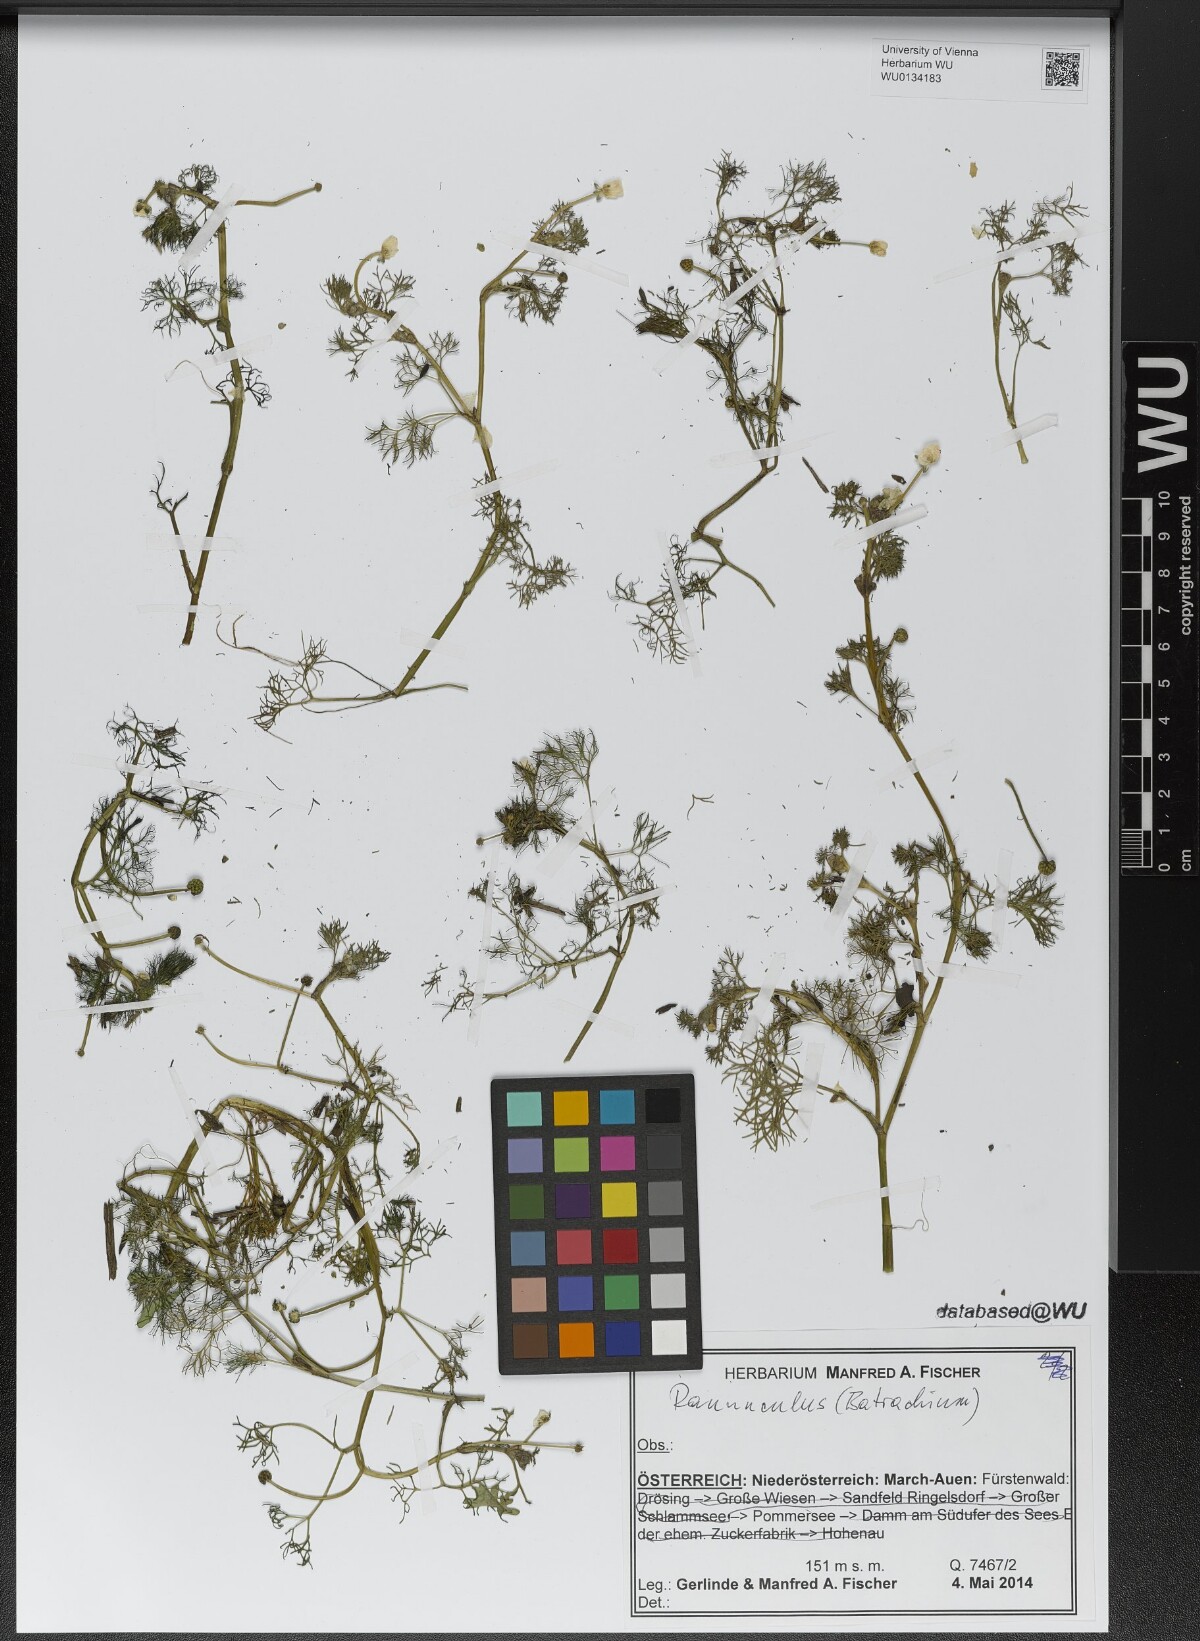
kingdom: Plantae
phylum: Tracheophyta
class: Magnoliopsida
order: Ranunculales
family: Ranunculaceae
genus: Ranunculus
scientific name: Ranunculus
